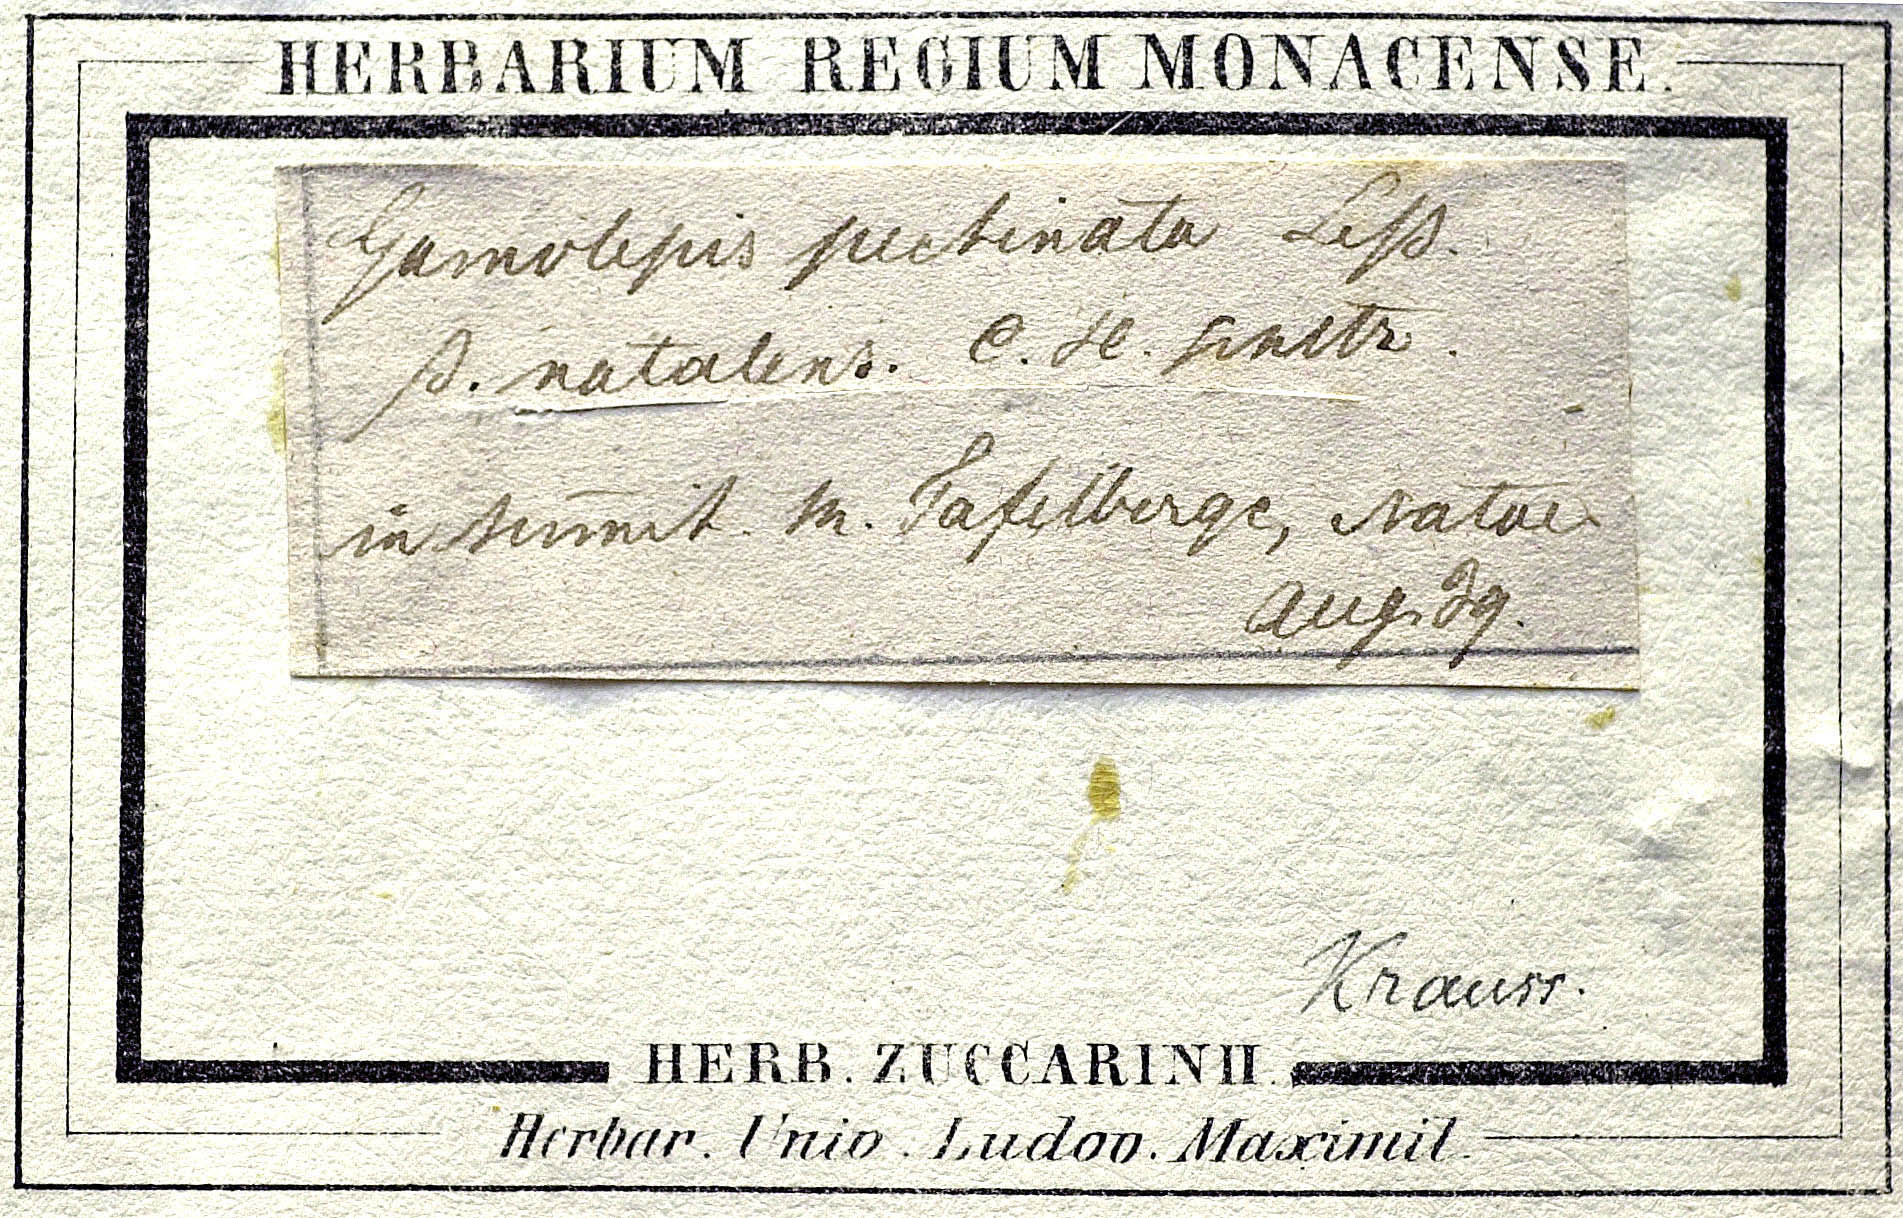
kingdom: Plantae
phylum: Tracheophyta
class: Magnoliopsida
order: Asterales
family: Asteraceae
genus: Euryops
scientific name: Euryops laxus
